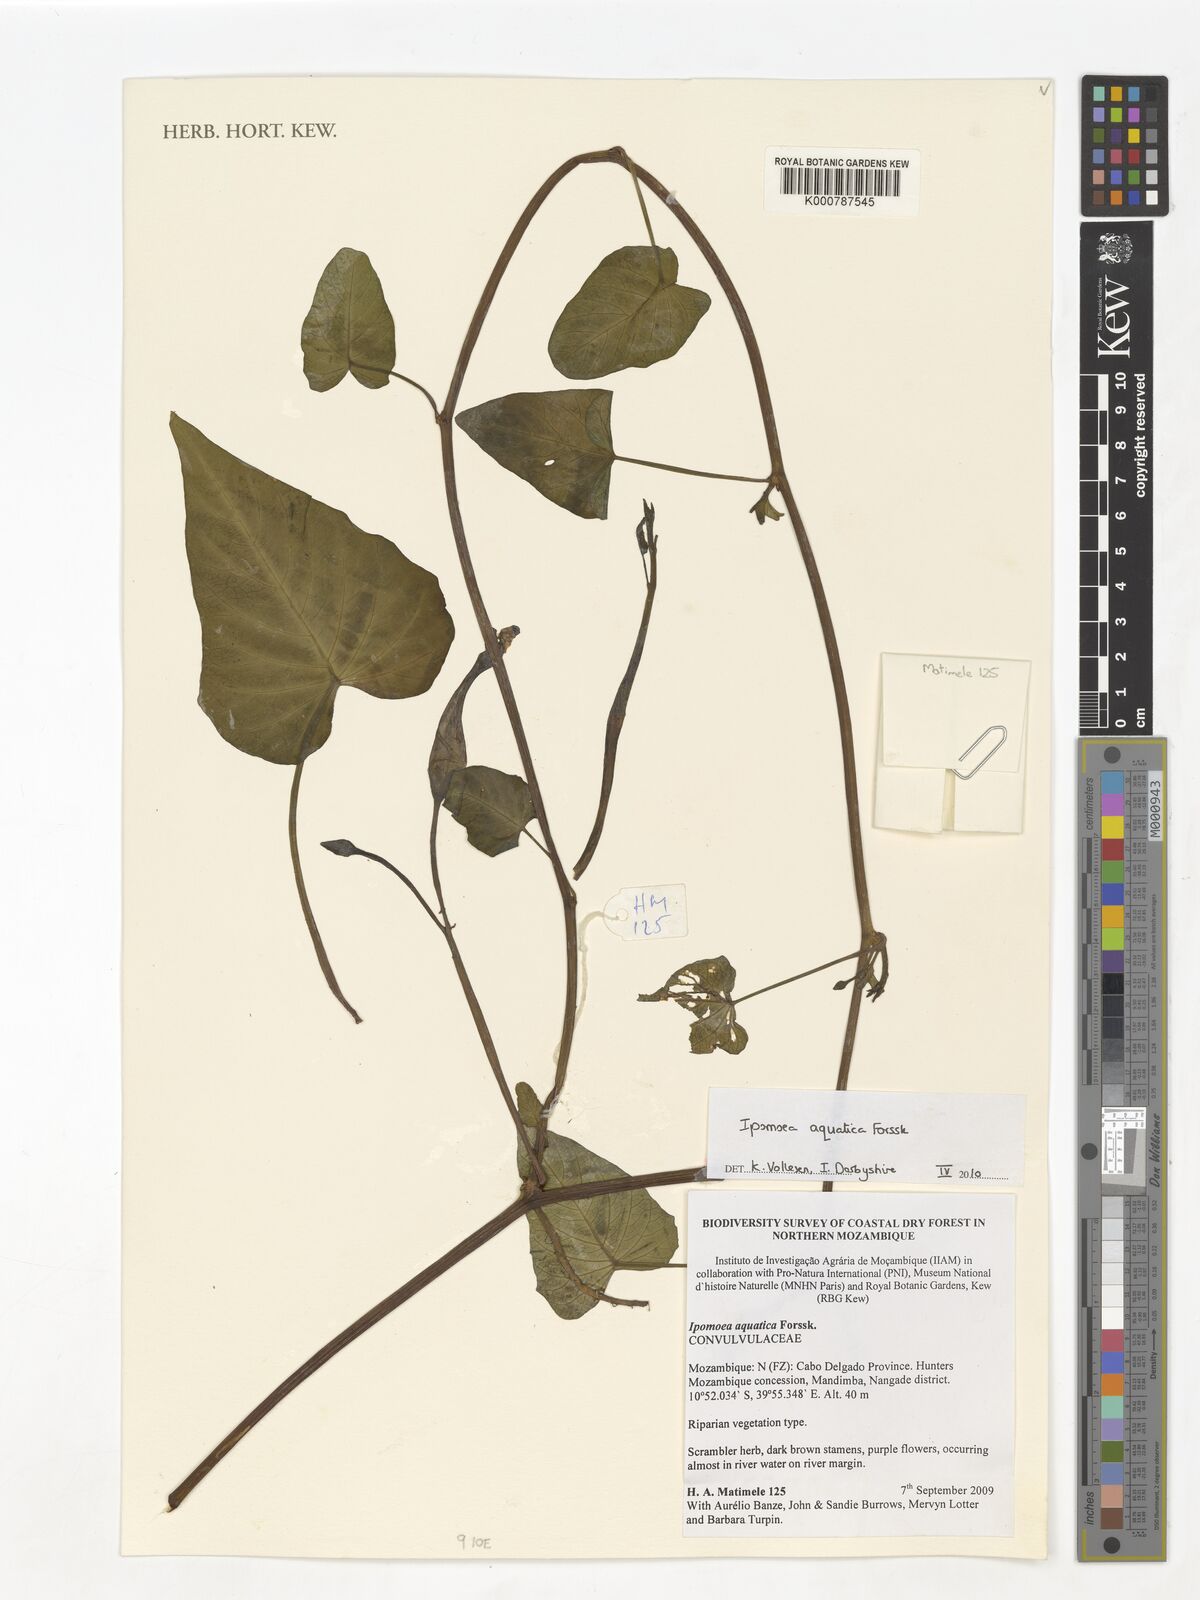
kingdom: Plantae
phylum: Tracheophyta
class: Liliopsida
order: Alismatales
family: Araceae
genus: Nabalu
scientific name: Nabalu corneri
